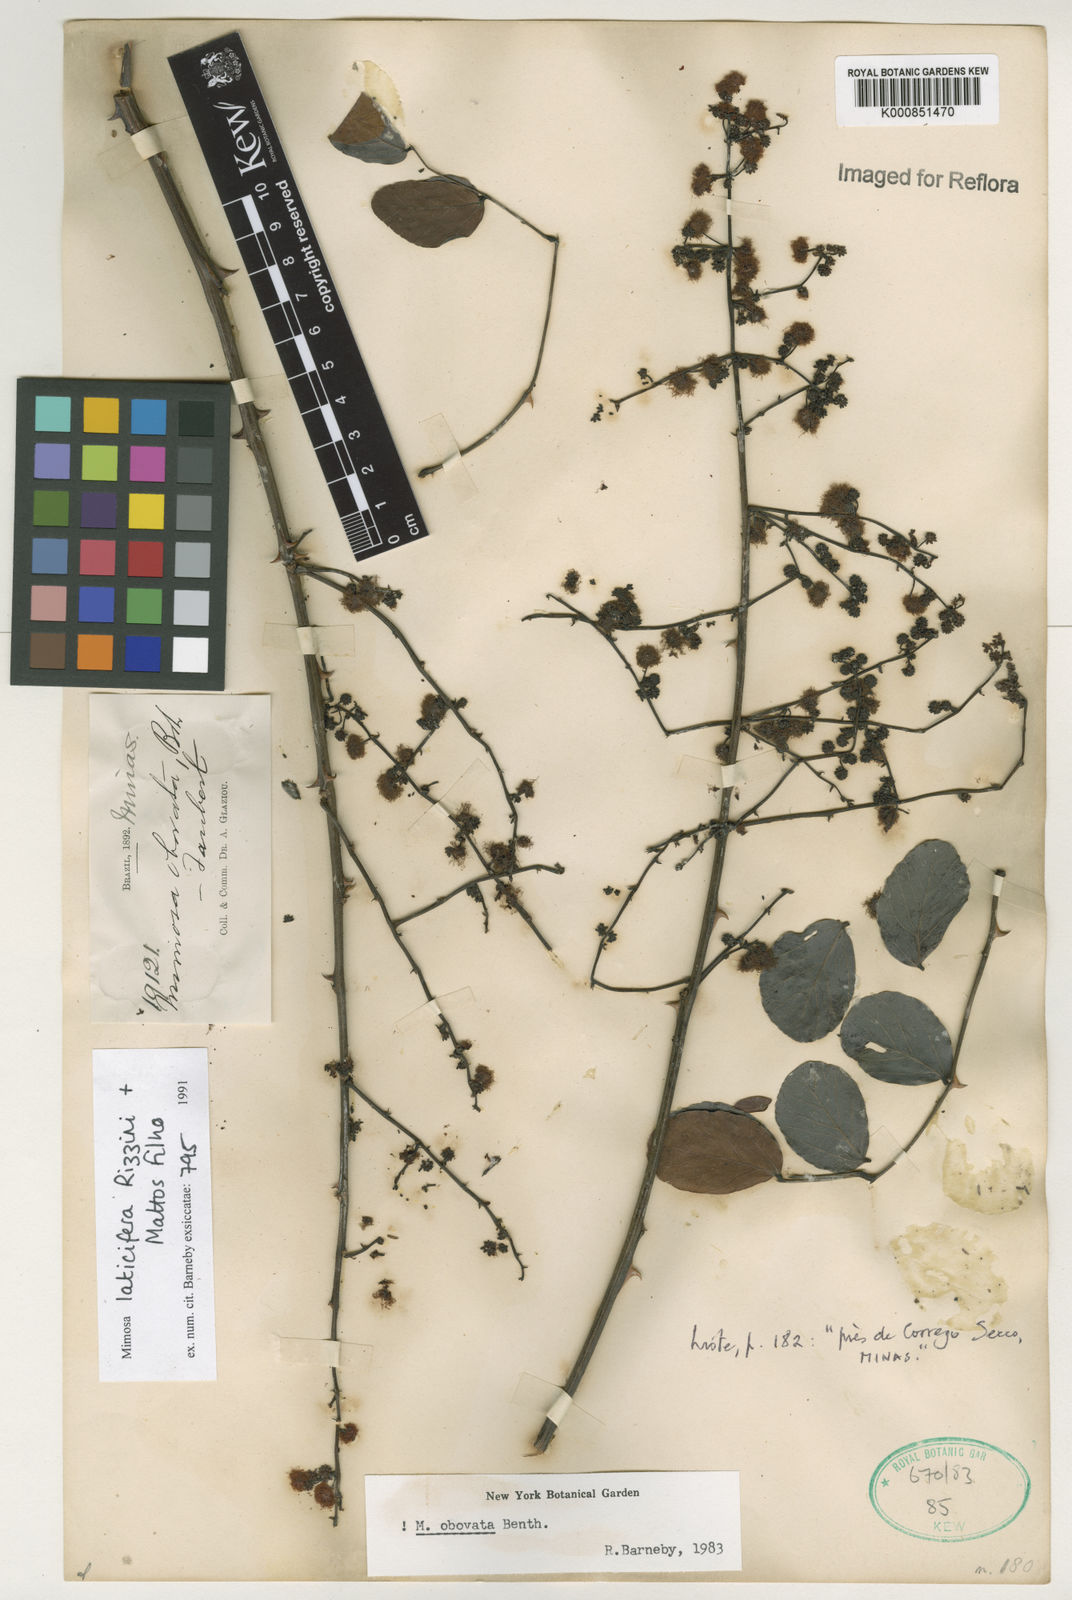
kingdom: Plantae
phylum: Tracheophyta
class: Magnoliopsida
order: Fabales
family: Fabaceae
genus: Mimosa
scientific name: Mimosa laticifera
